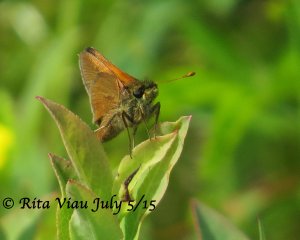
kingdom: Animalia
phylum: Arthropoda
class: Insecta
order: Lepidoptera
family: Hesperiidae
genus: Polites
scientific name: Polites themistocles
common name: Tawny-edged Skipper
